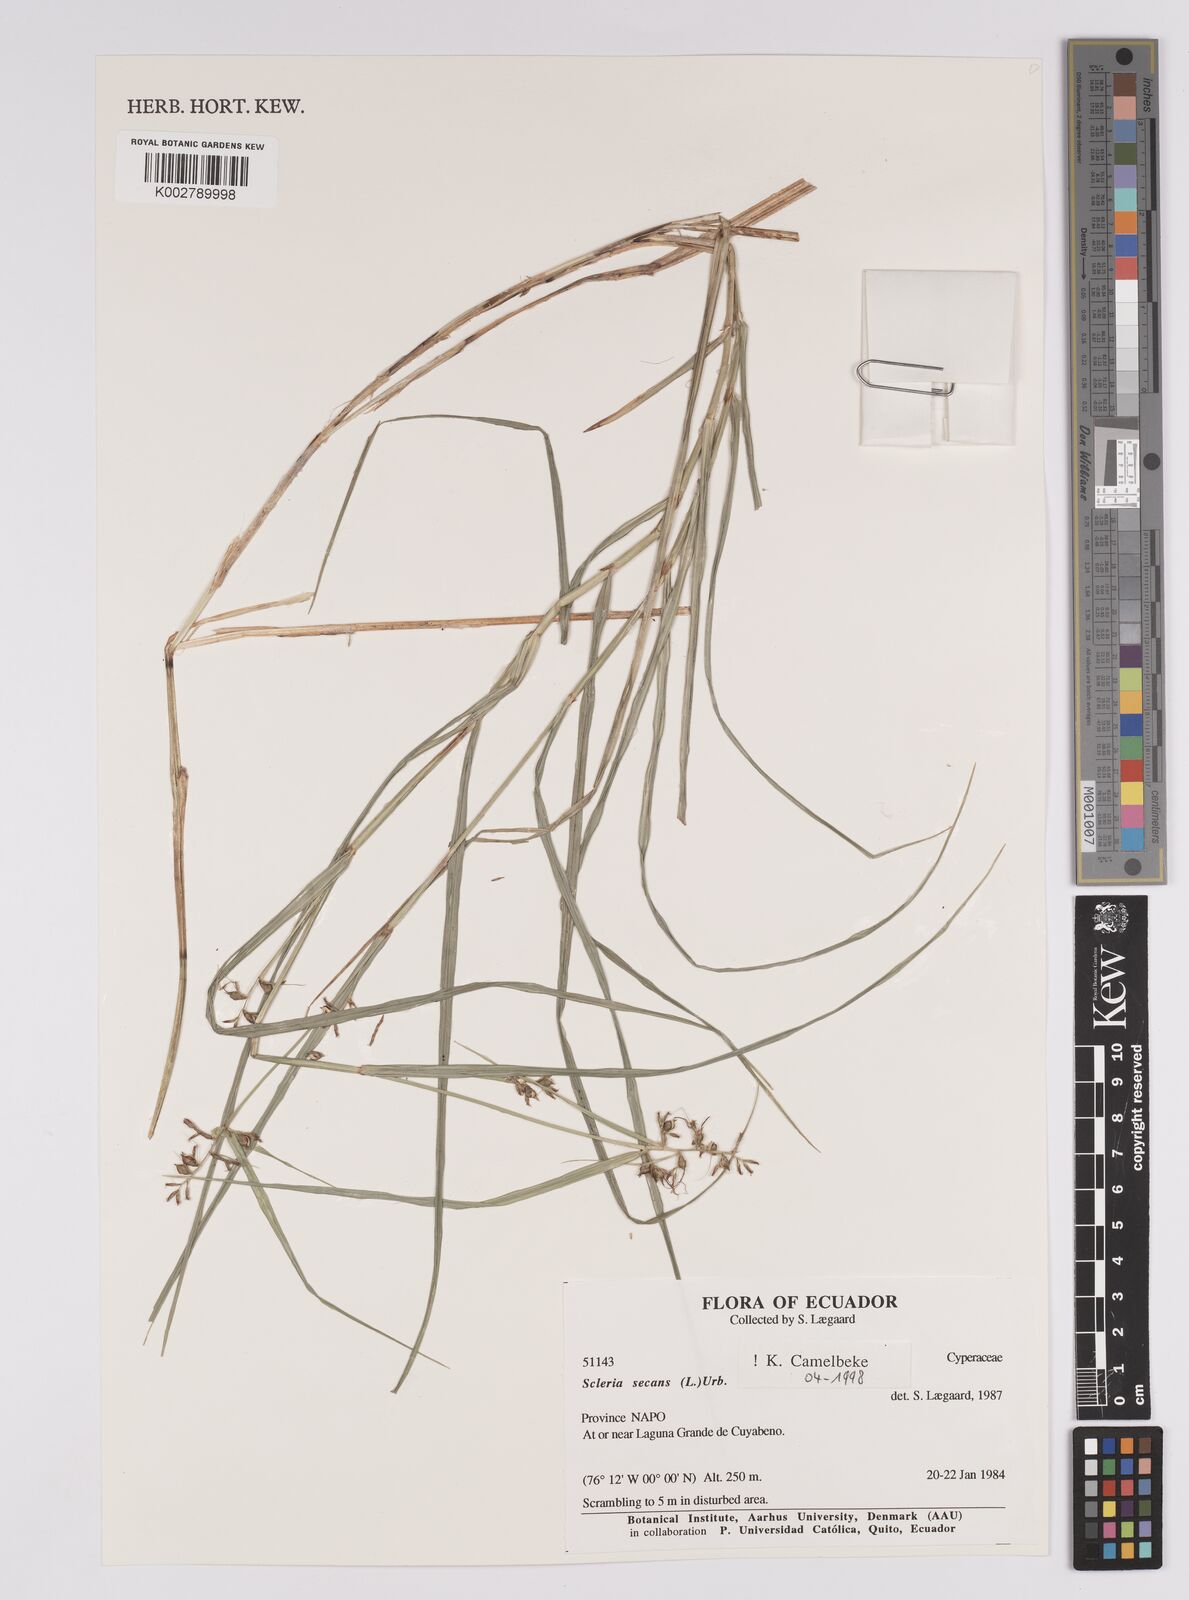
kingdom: Plantae
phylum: Tracheophyta
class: Liliopsida
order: Poales
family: Cyperaceae
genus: Scleria
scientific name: Scleria secans
